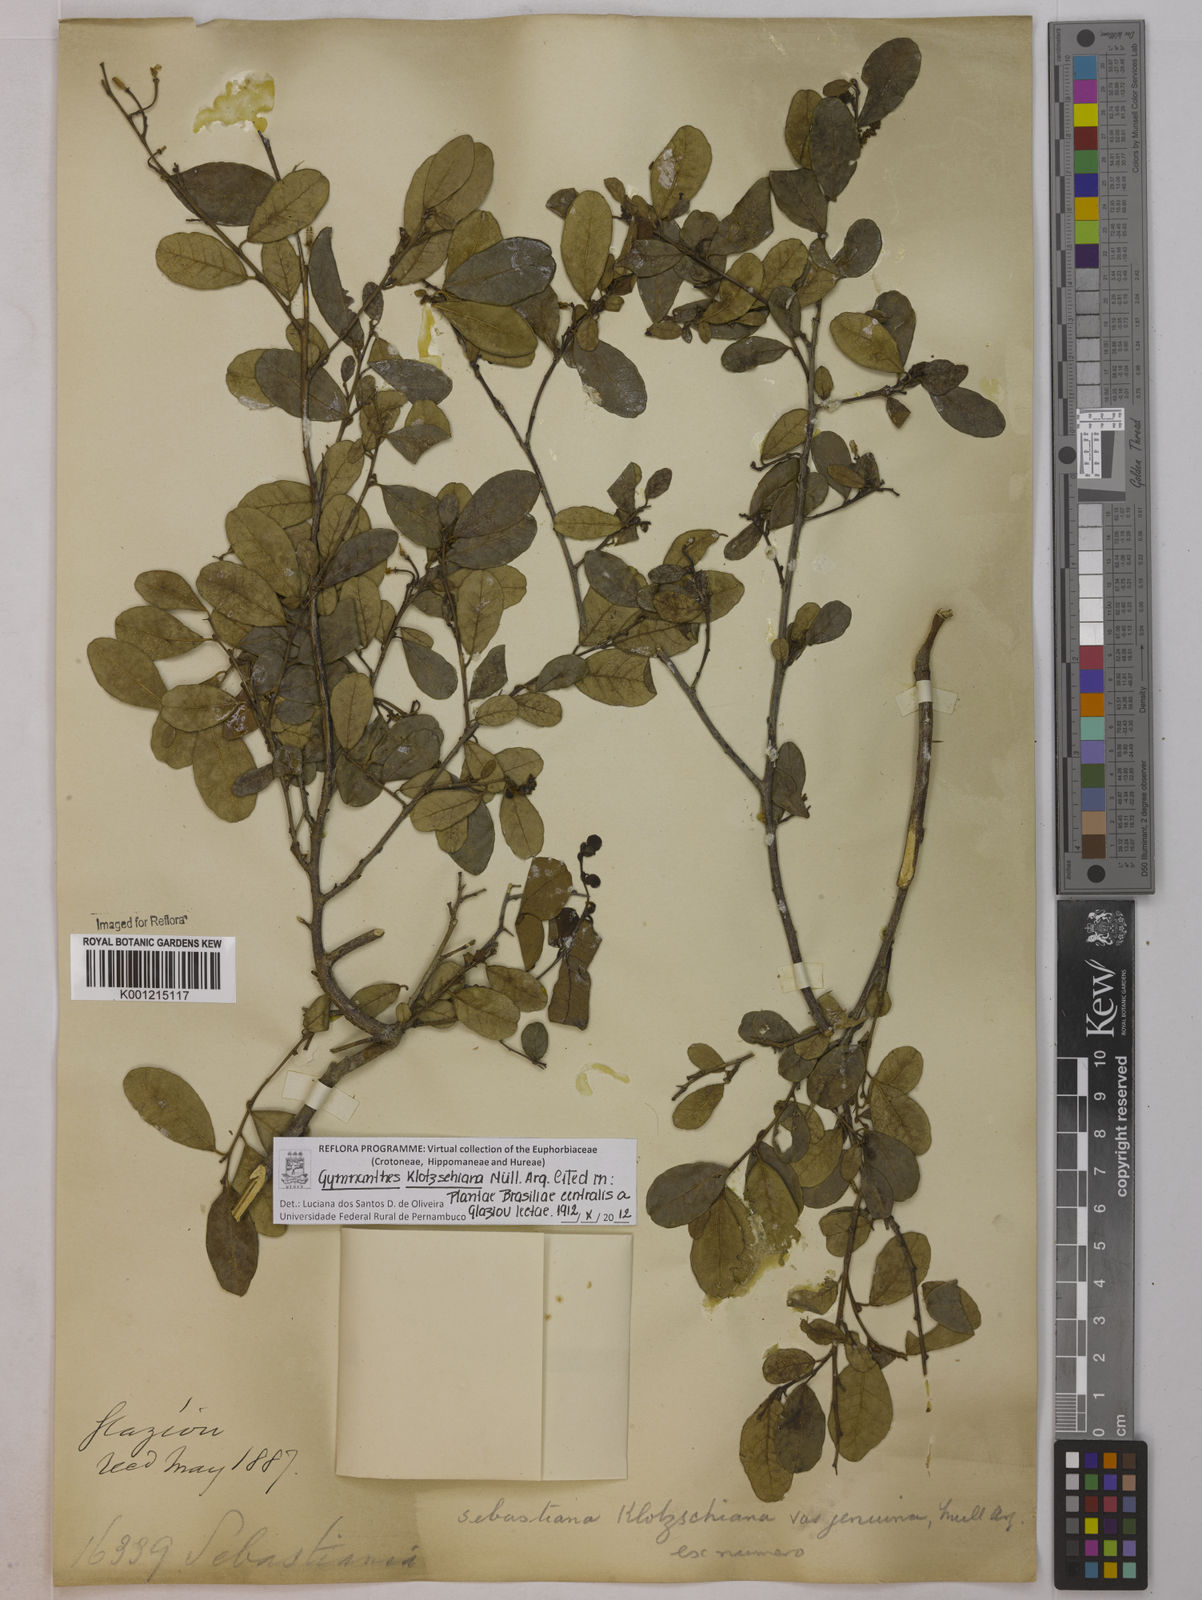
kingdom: Plantae
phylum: Tracheophyta
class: Magnoliopsida
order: Malpighiales
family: Euphorbiaceae
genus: Gymnanthes
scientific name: Gymnanthes
